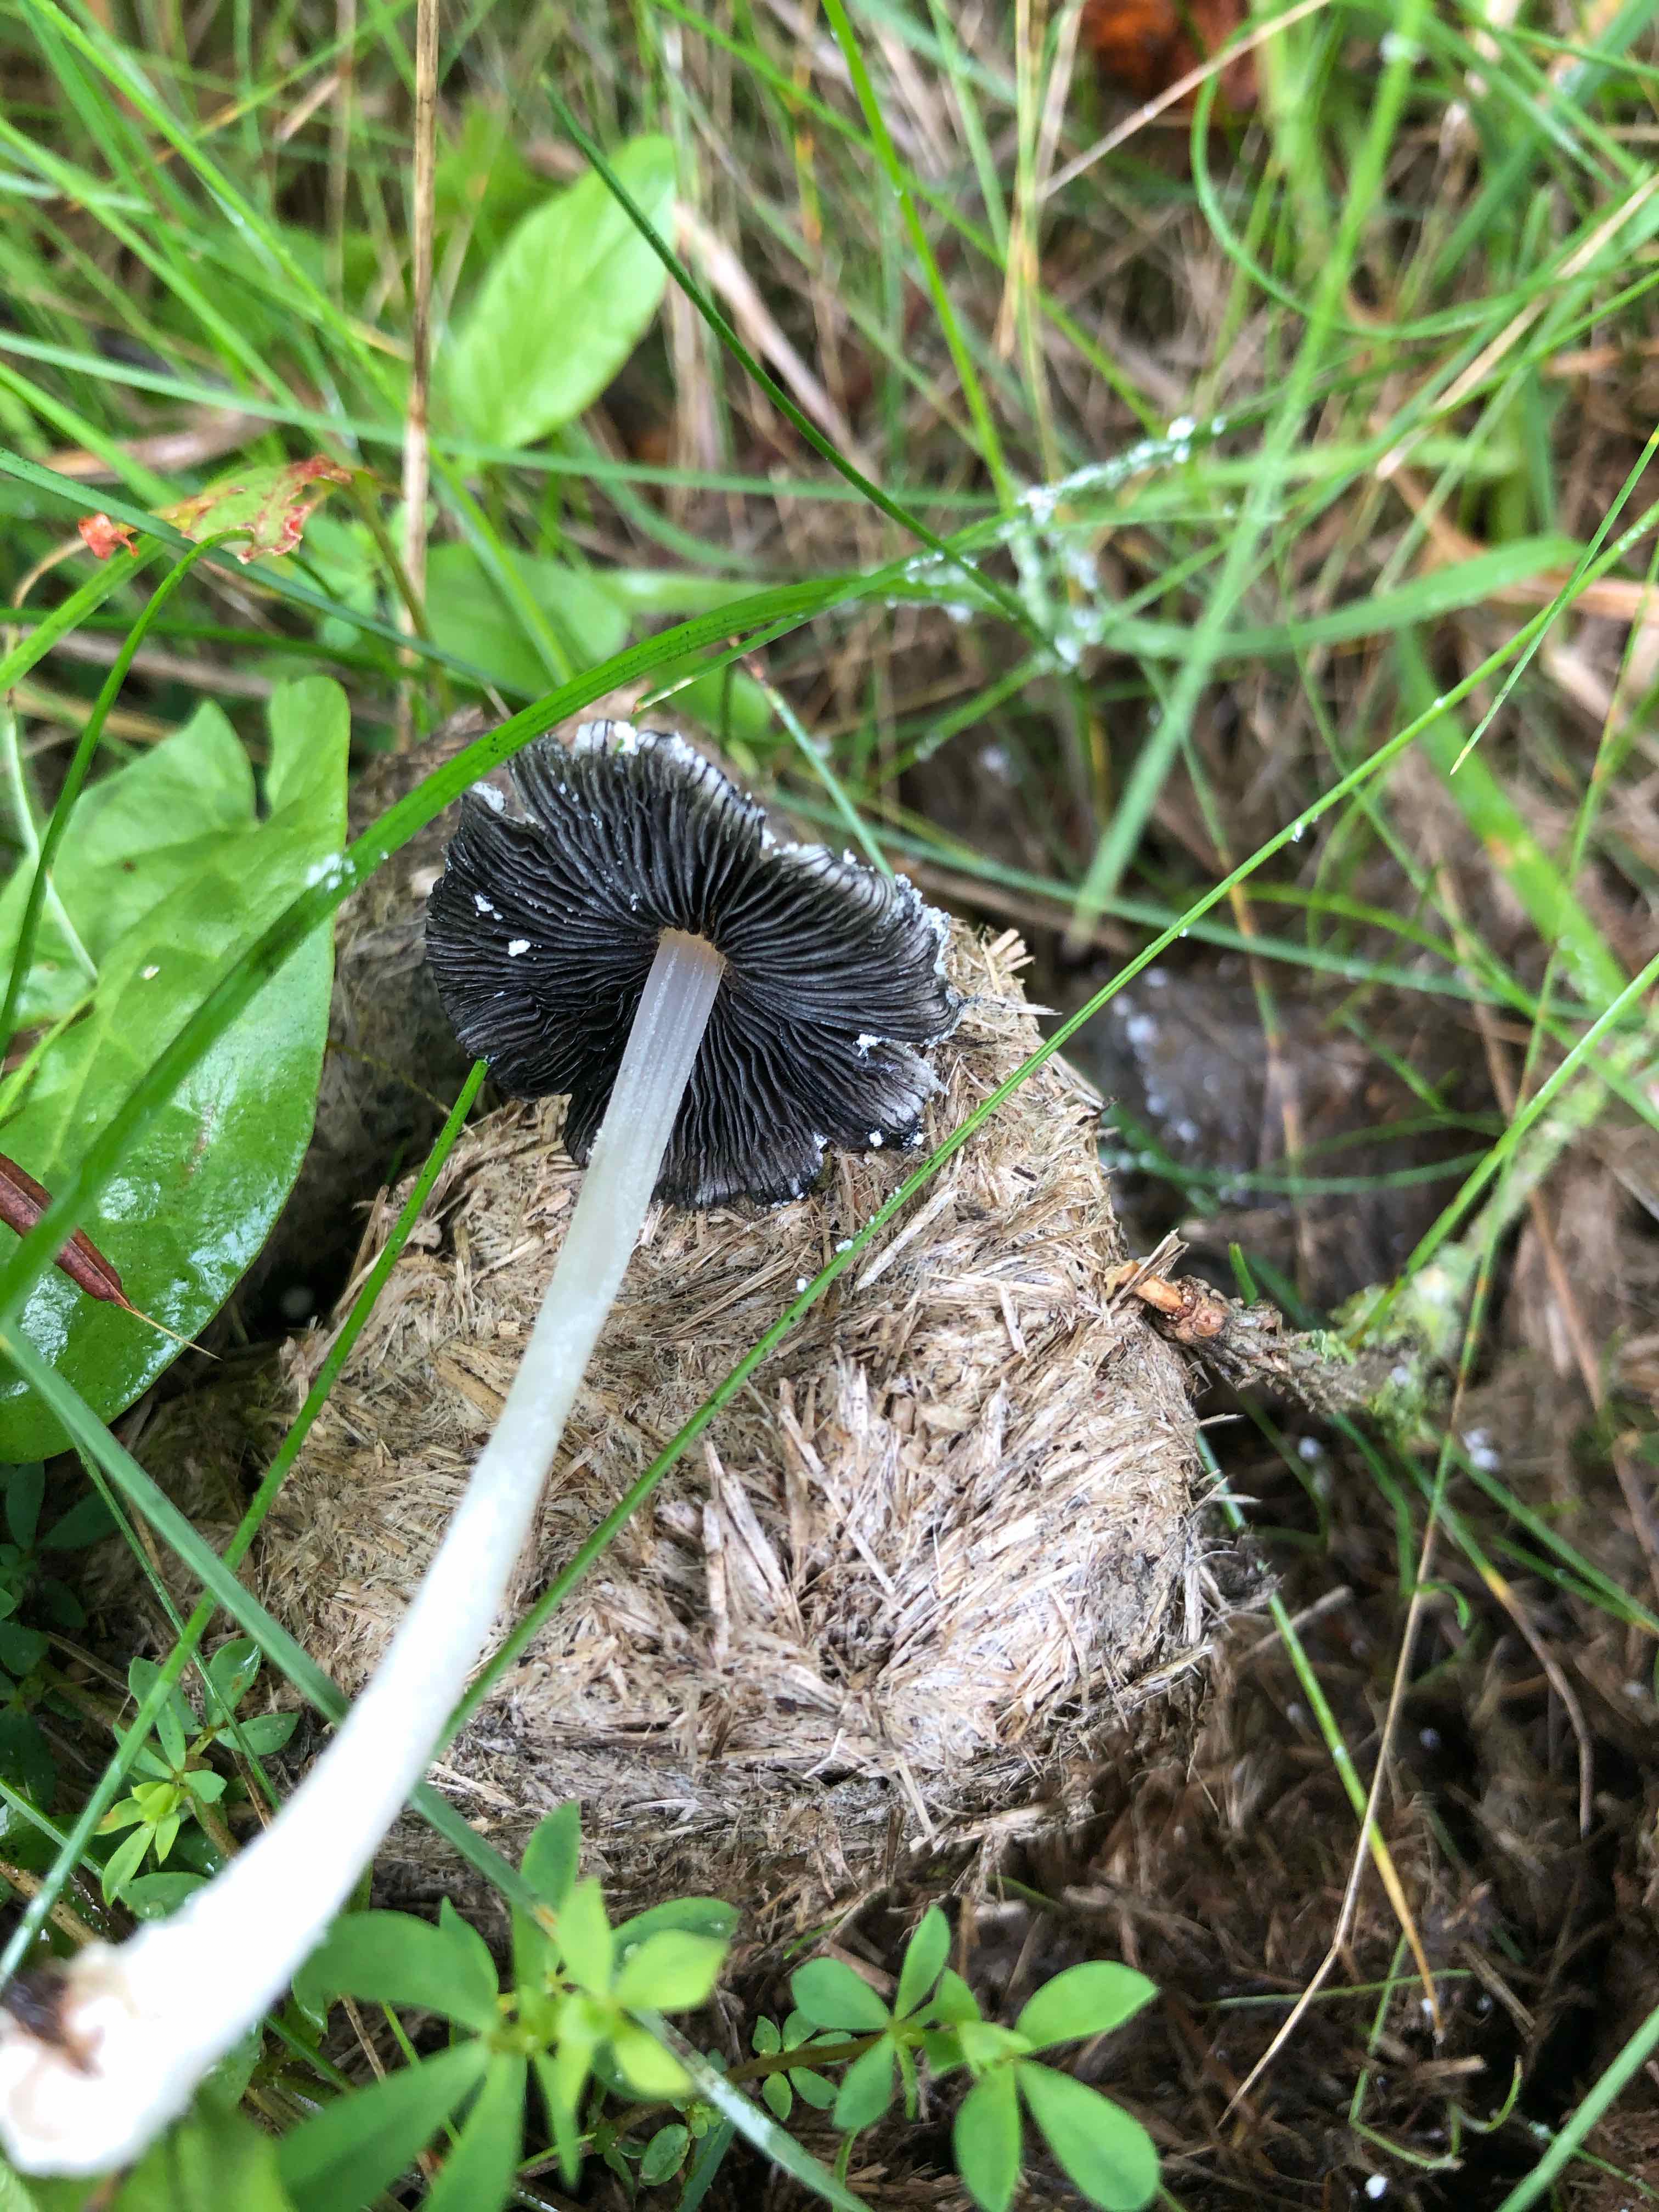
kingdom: Fungi
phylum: Basidiomycota
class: Agaricomycetes
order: Agaricales
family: Psathyrellaceae
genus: Coprinopsis
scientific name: Coprinopsis nivea
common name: snehvid blækhat
